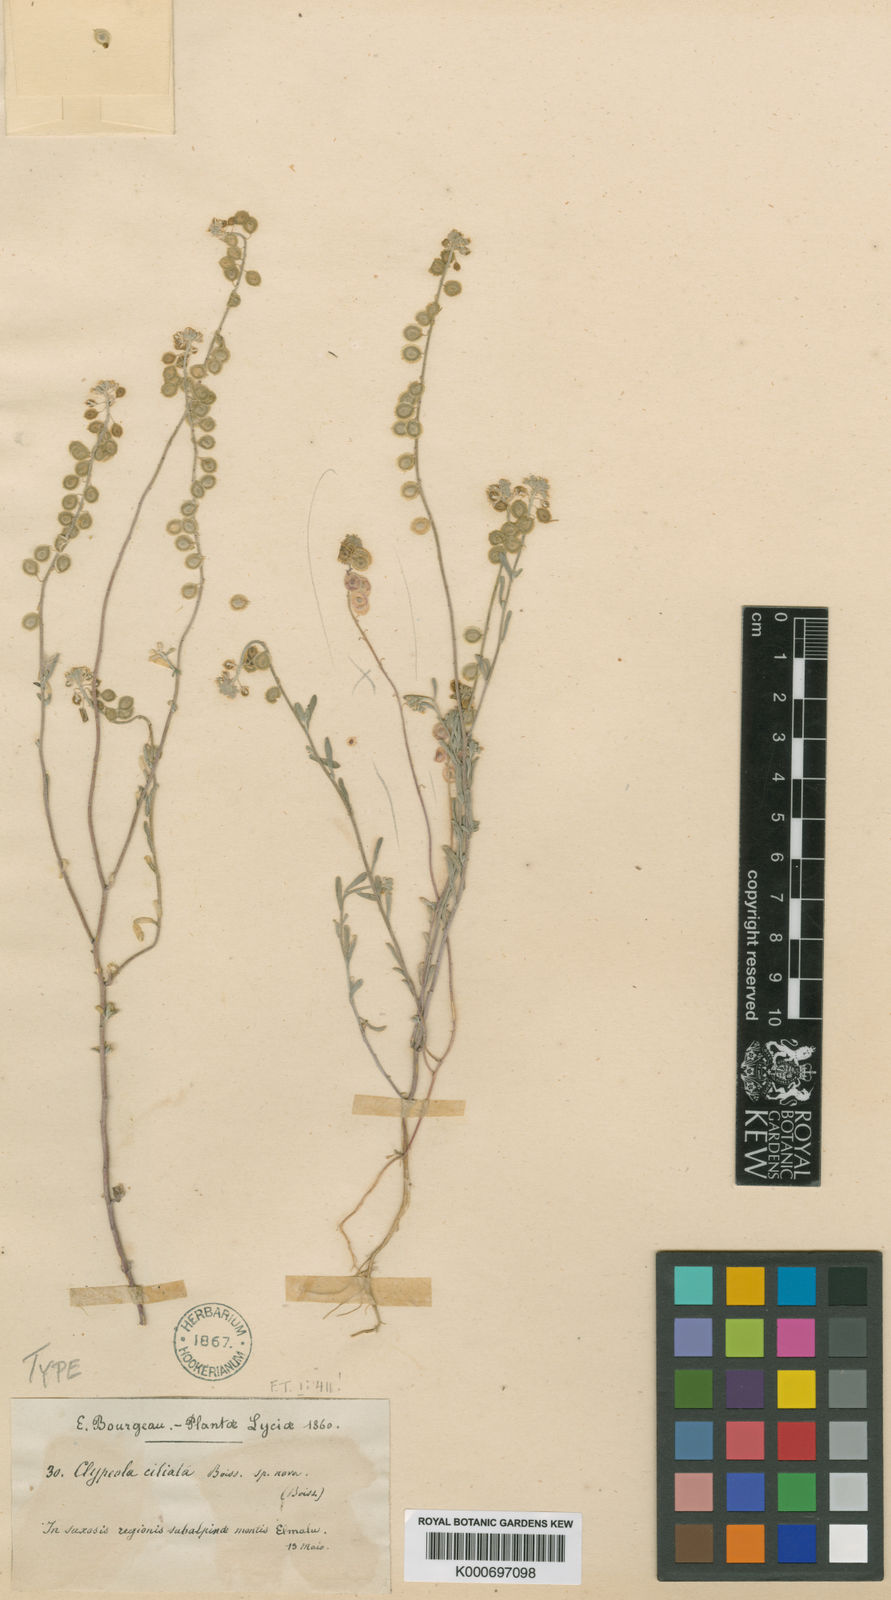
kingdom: Plantae
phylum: Tracheophyta
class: Magnoliopsida
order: Brassicales
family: Brassicaceae
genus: Clypeola
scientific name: Clypeola ciliata
